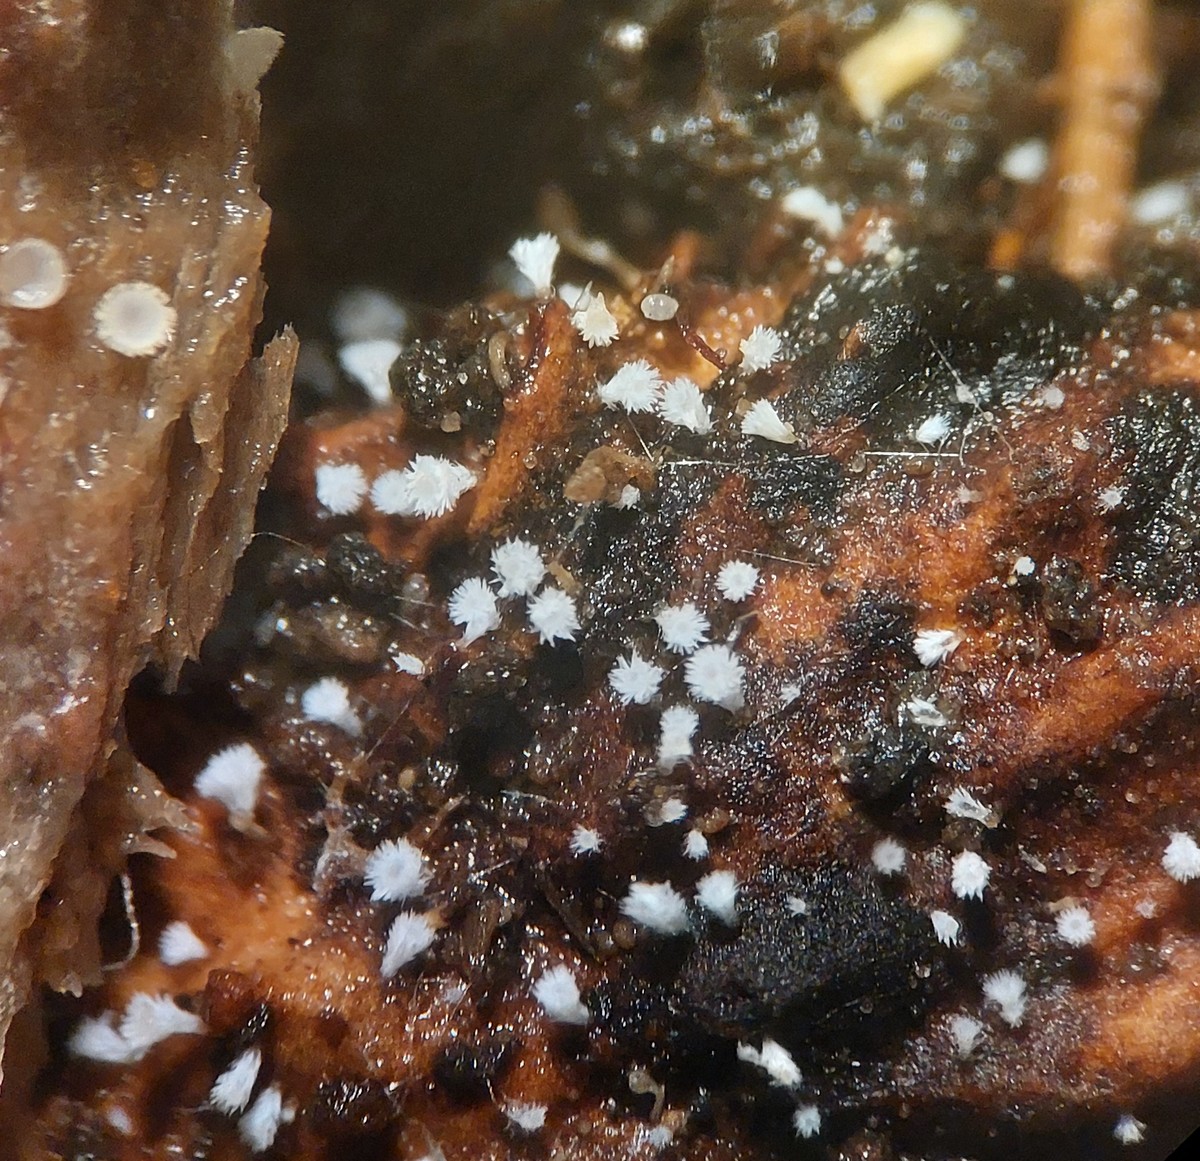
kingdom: Fungi
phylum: Ascomycota
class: Leotiomycetes
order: Helotiales
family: Lachnaceae
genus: Lachnum
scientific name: Lachnum virgineum
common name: jomfru-frynseskive
